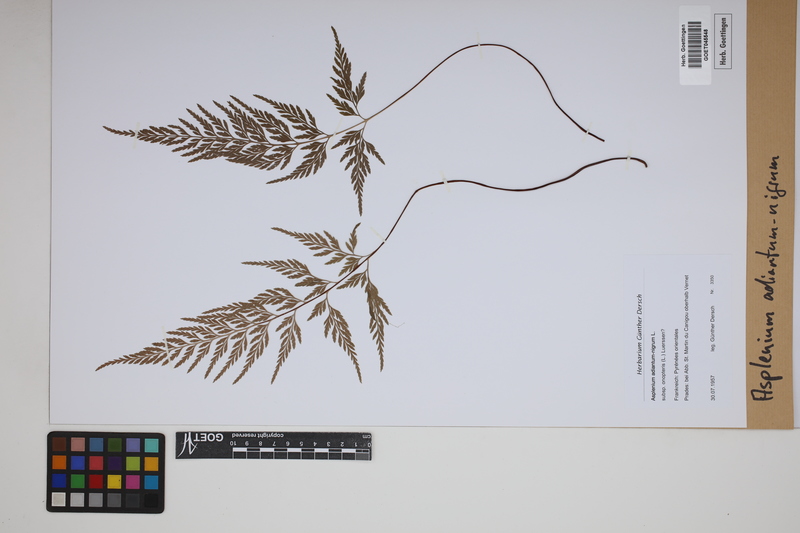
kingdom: Plantae
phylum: Tracheophyta
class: Polypodiopsida
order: Polypodiales
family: Aspleniaceae
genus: Asplenium
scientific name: Asplenium adiantum-nigrum
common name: Black spleenwort
